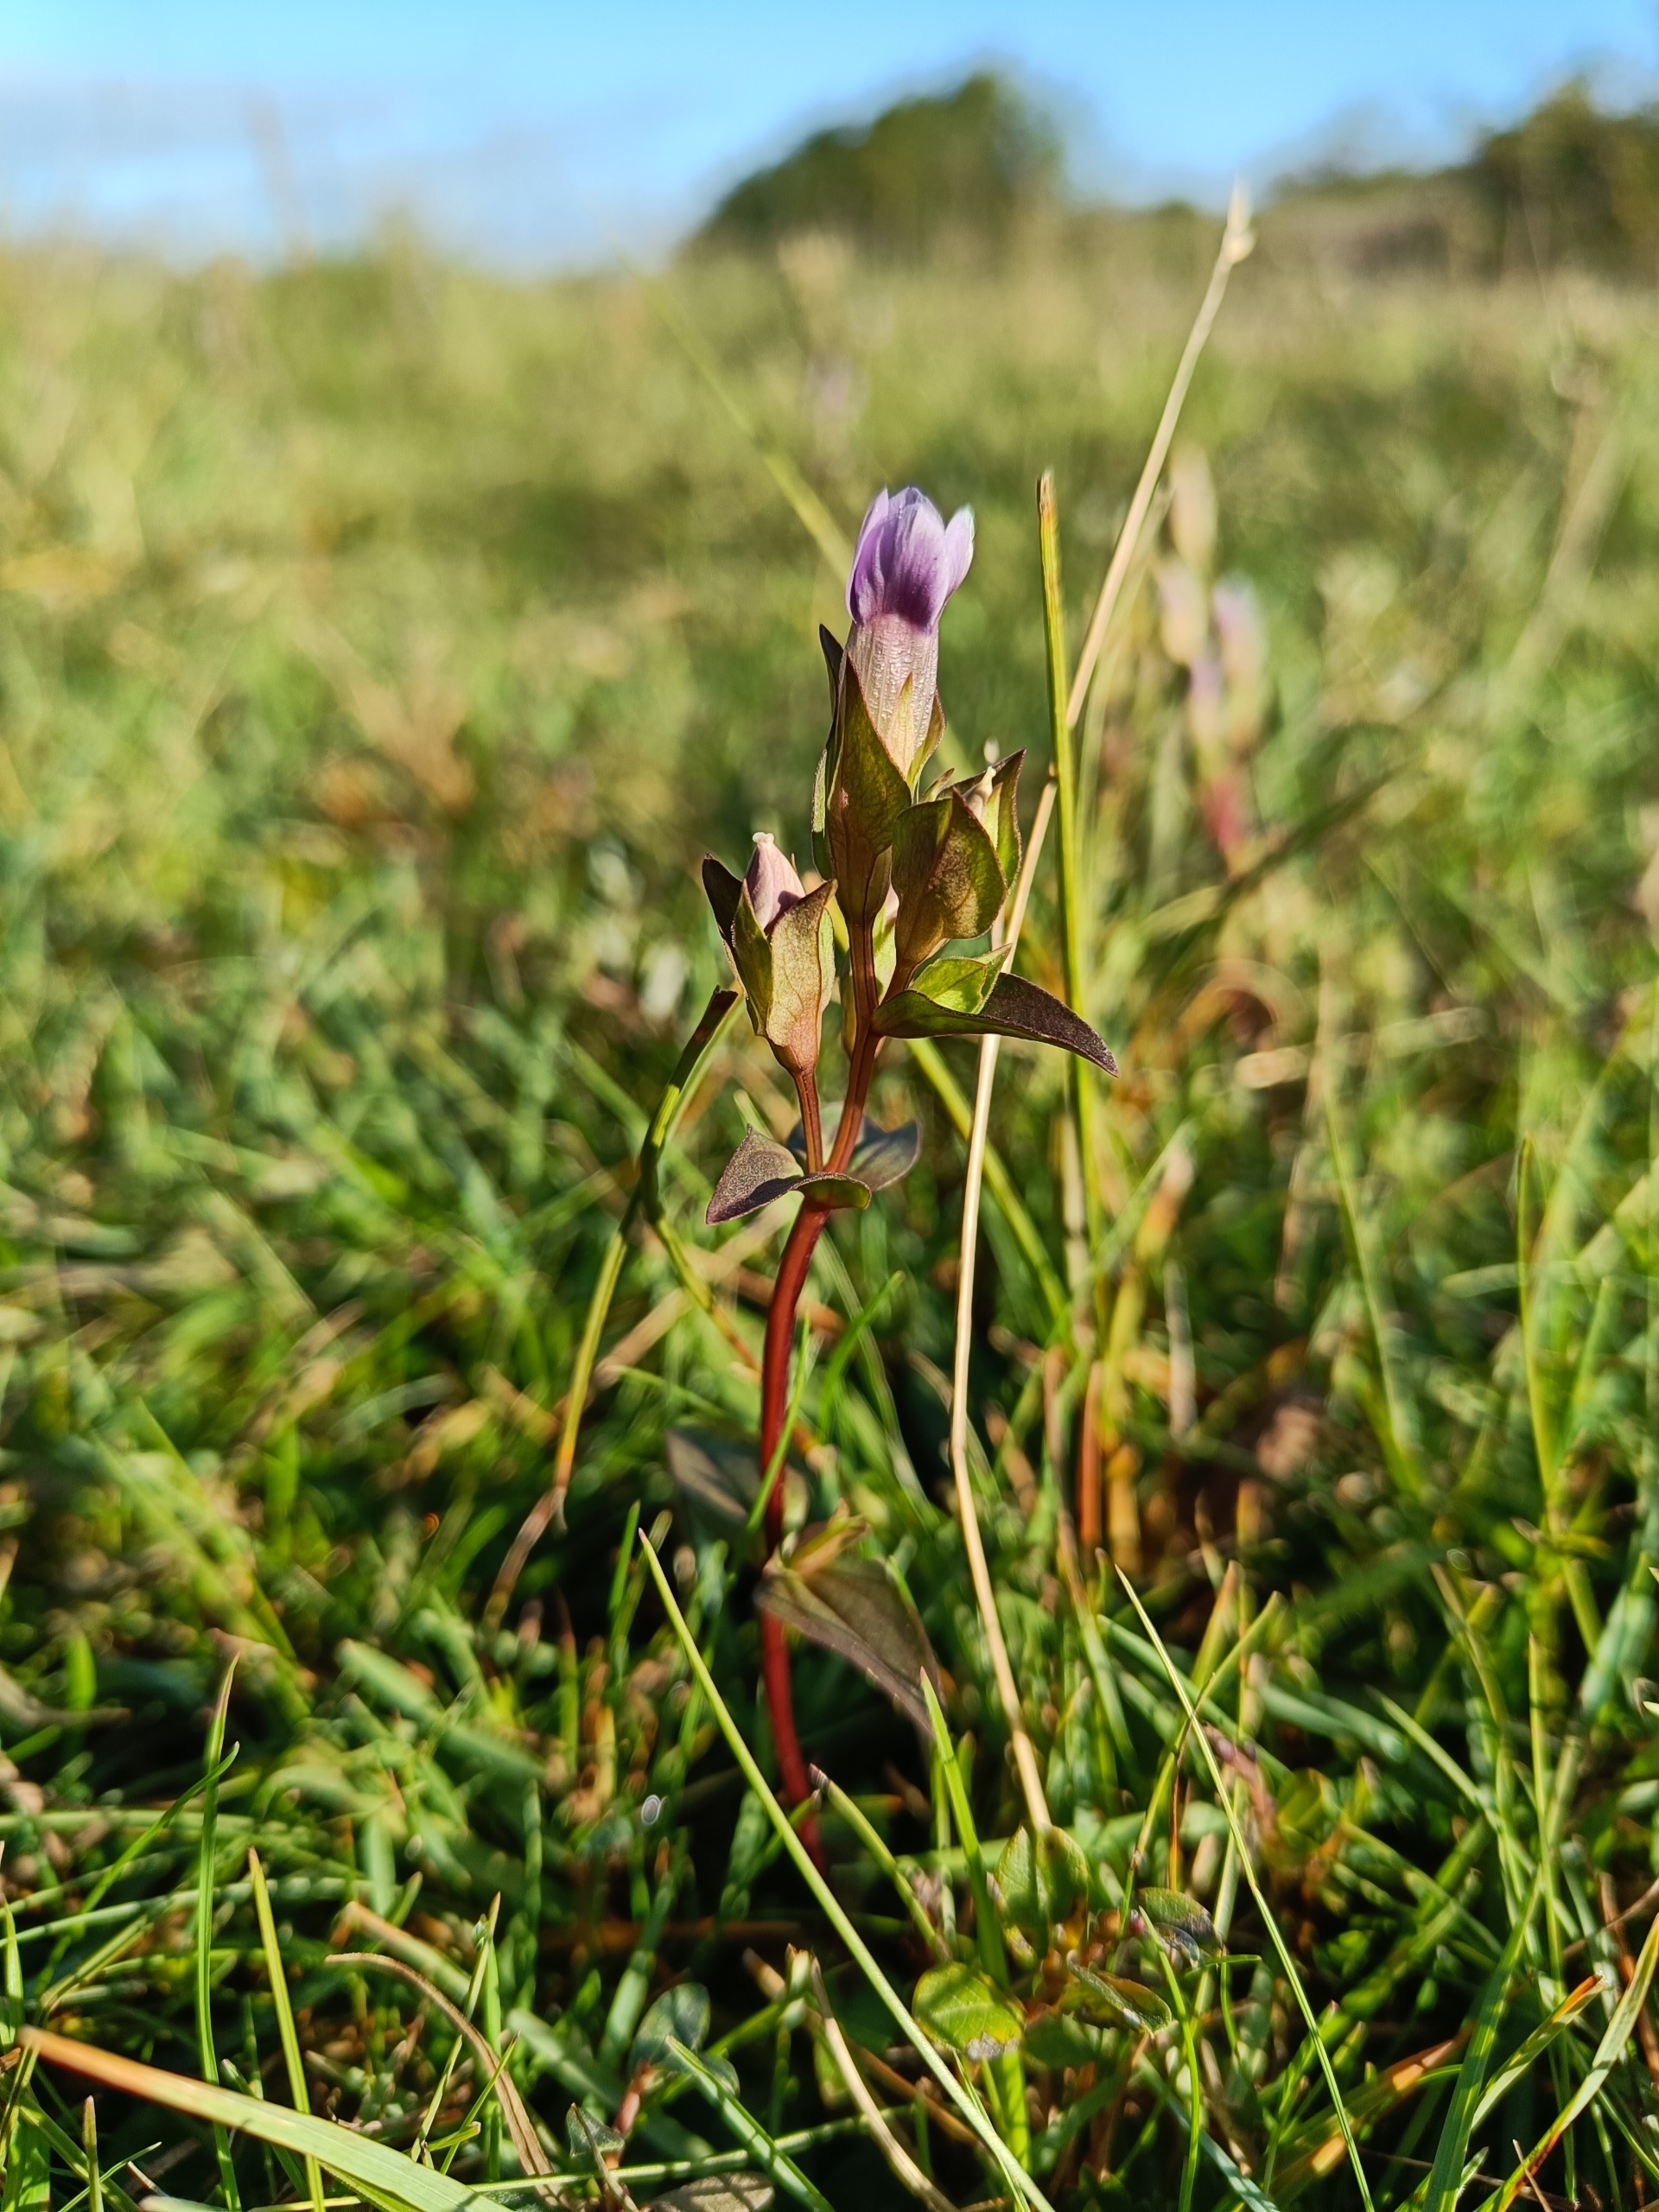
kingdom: Plantae
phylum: Tracheophyta
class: Magnoliopsida
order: Gentianales
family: Gentianaceae
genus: Gentianella
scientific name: Gentianella campestris
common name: Baltisk ensian
